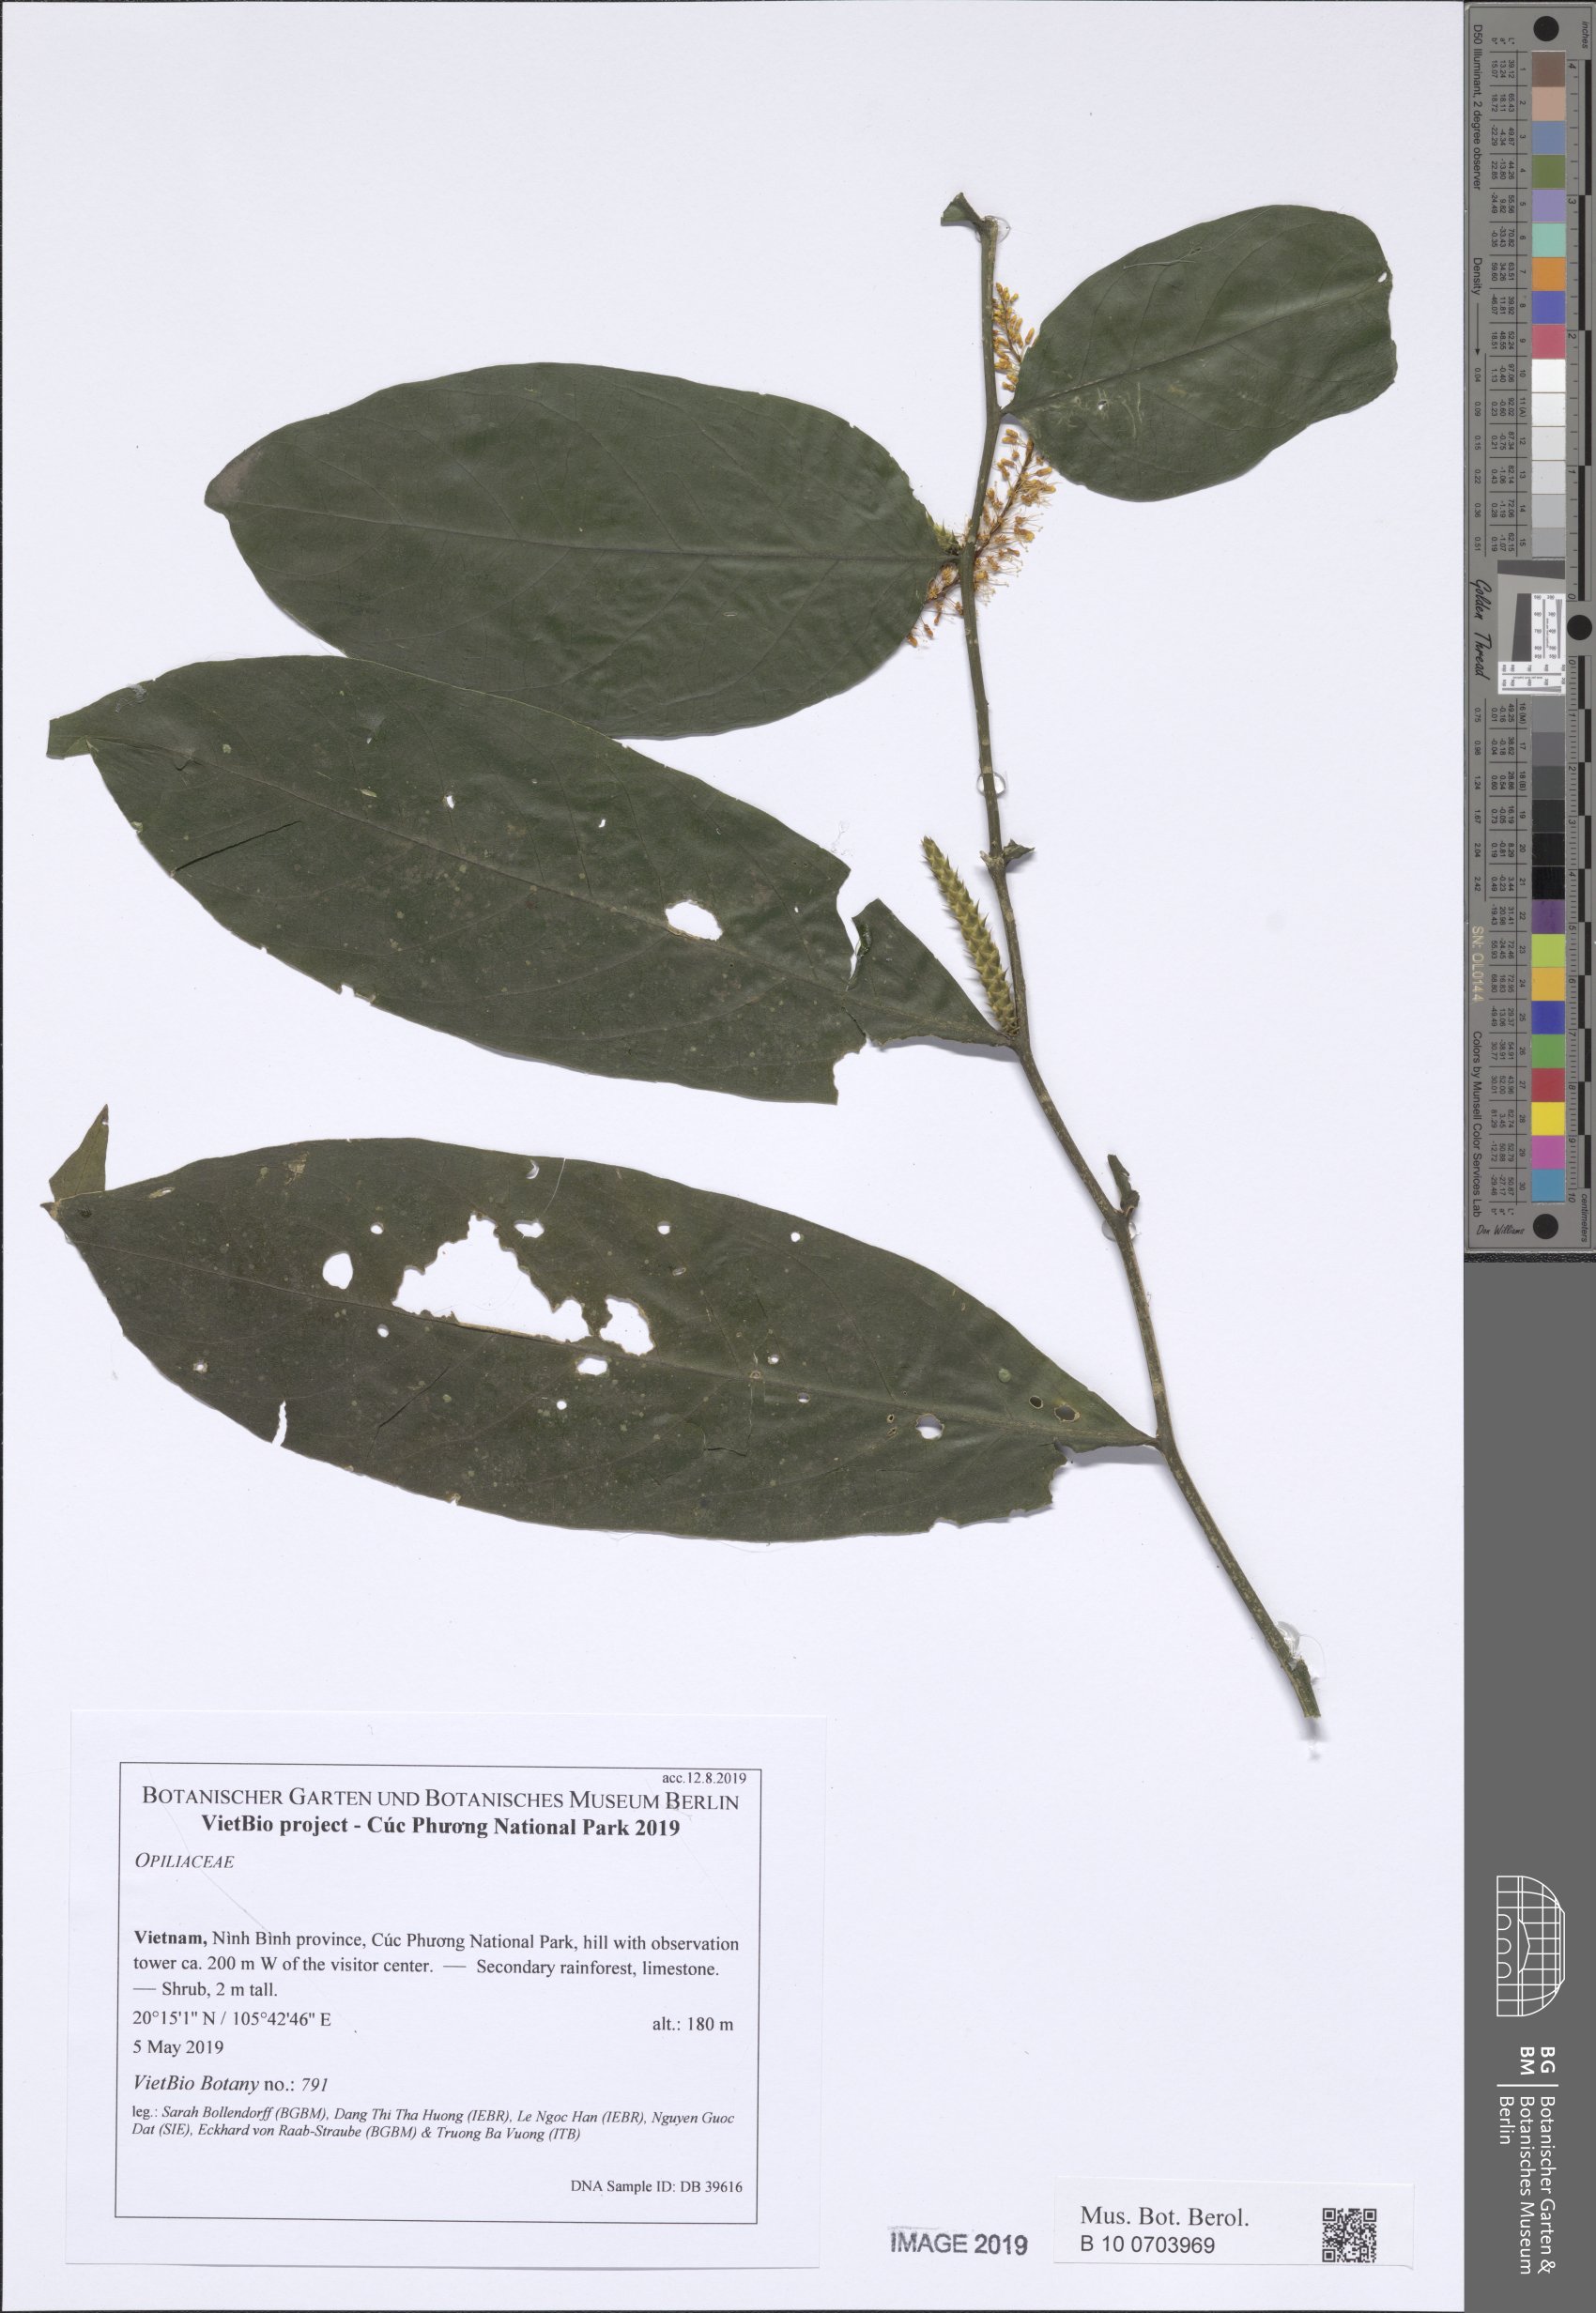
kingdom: Plantae
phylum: Tracheophyta
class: Magnoliopsida
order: Santalales
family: Opiliaceae
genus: Urobotrya
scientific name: Urobotrya siamensis
